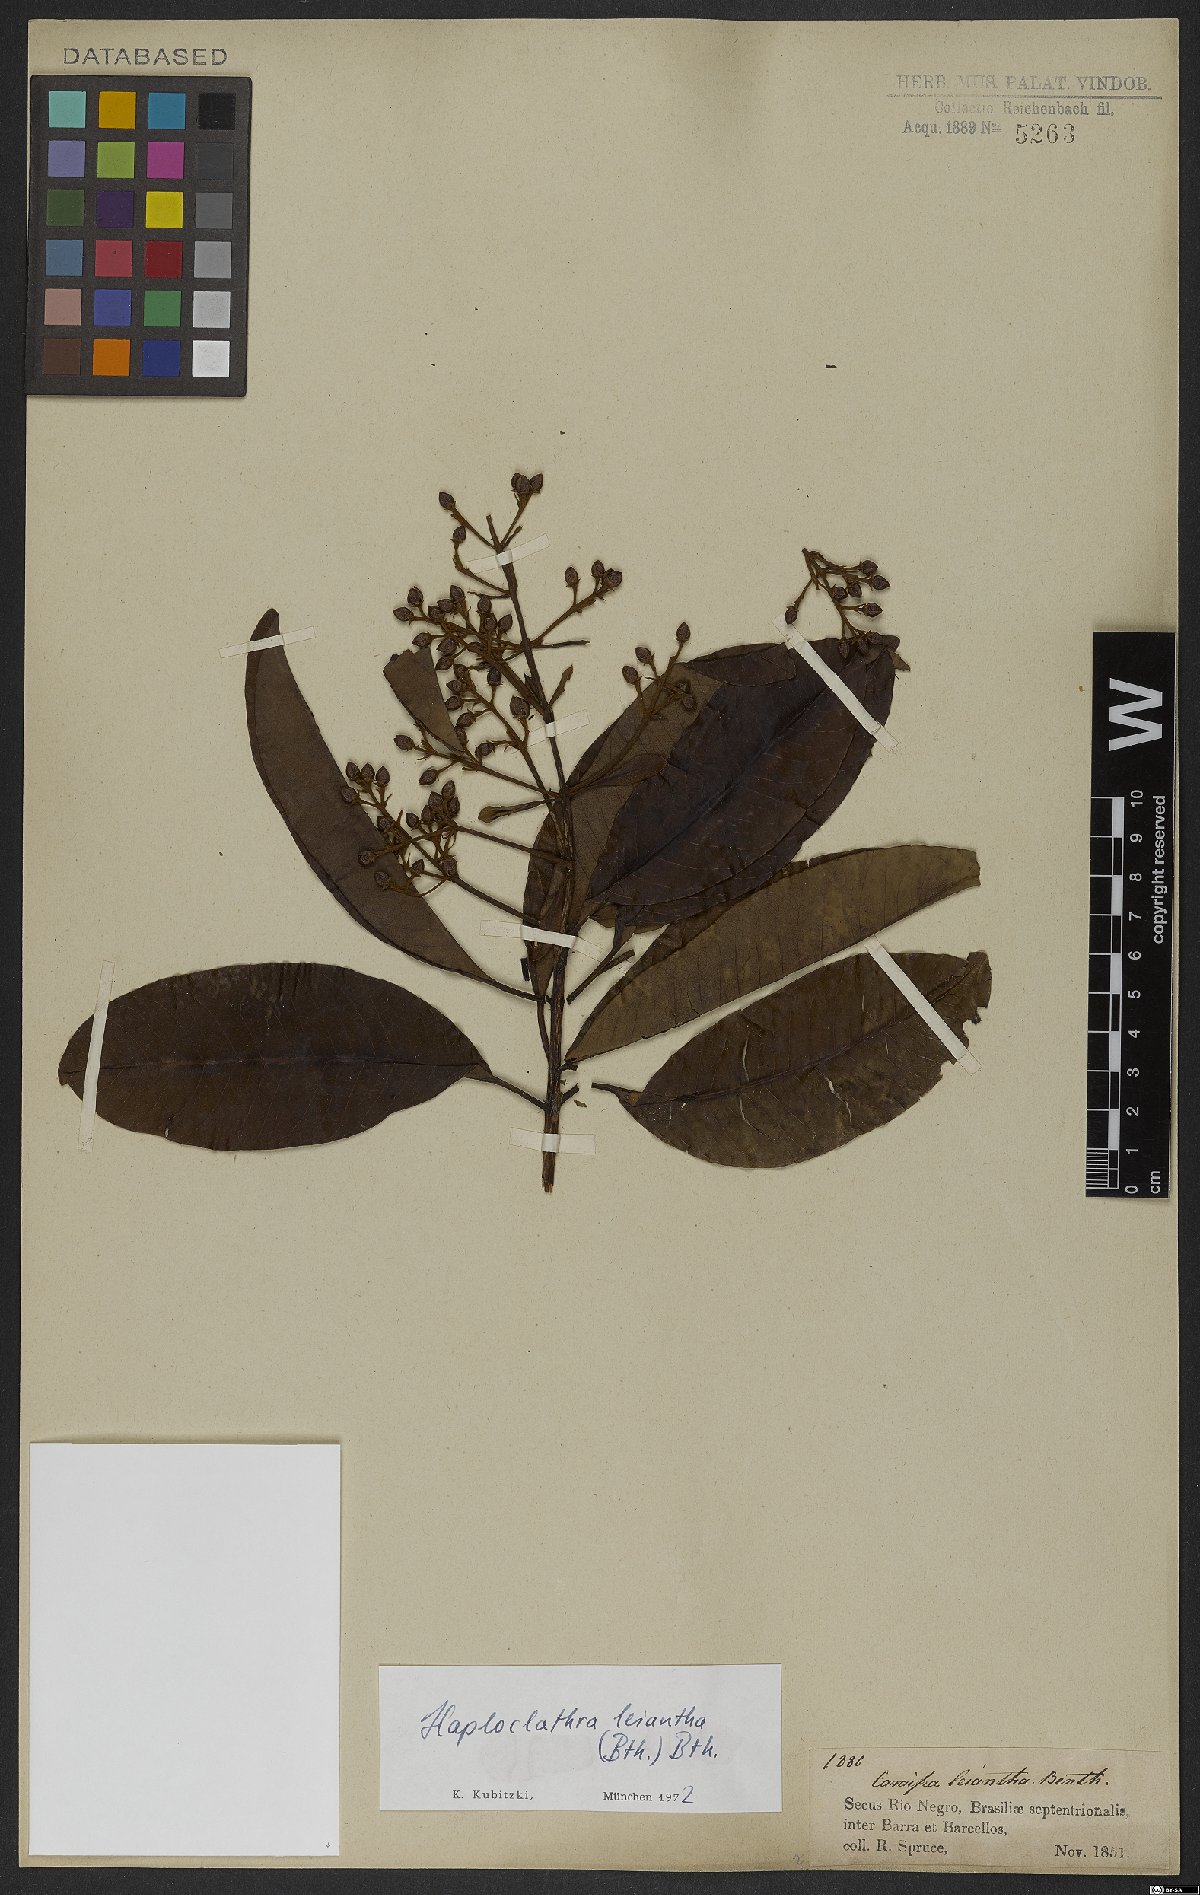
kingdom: Plantae
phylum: Tracheophyta
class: Magnoliopsida
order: Malpighiales
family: Calophyllaceae
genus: Haploclathra
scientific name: Haploclathra leiantha
